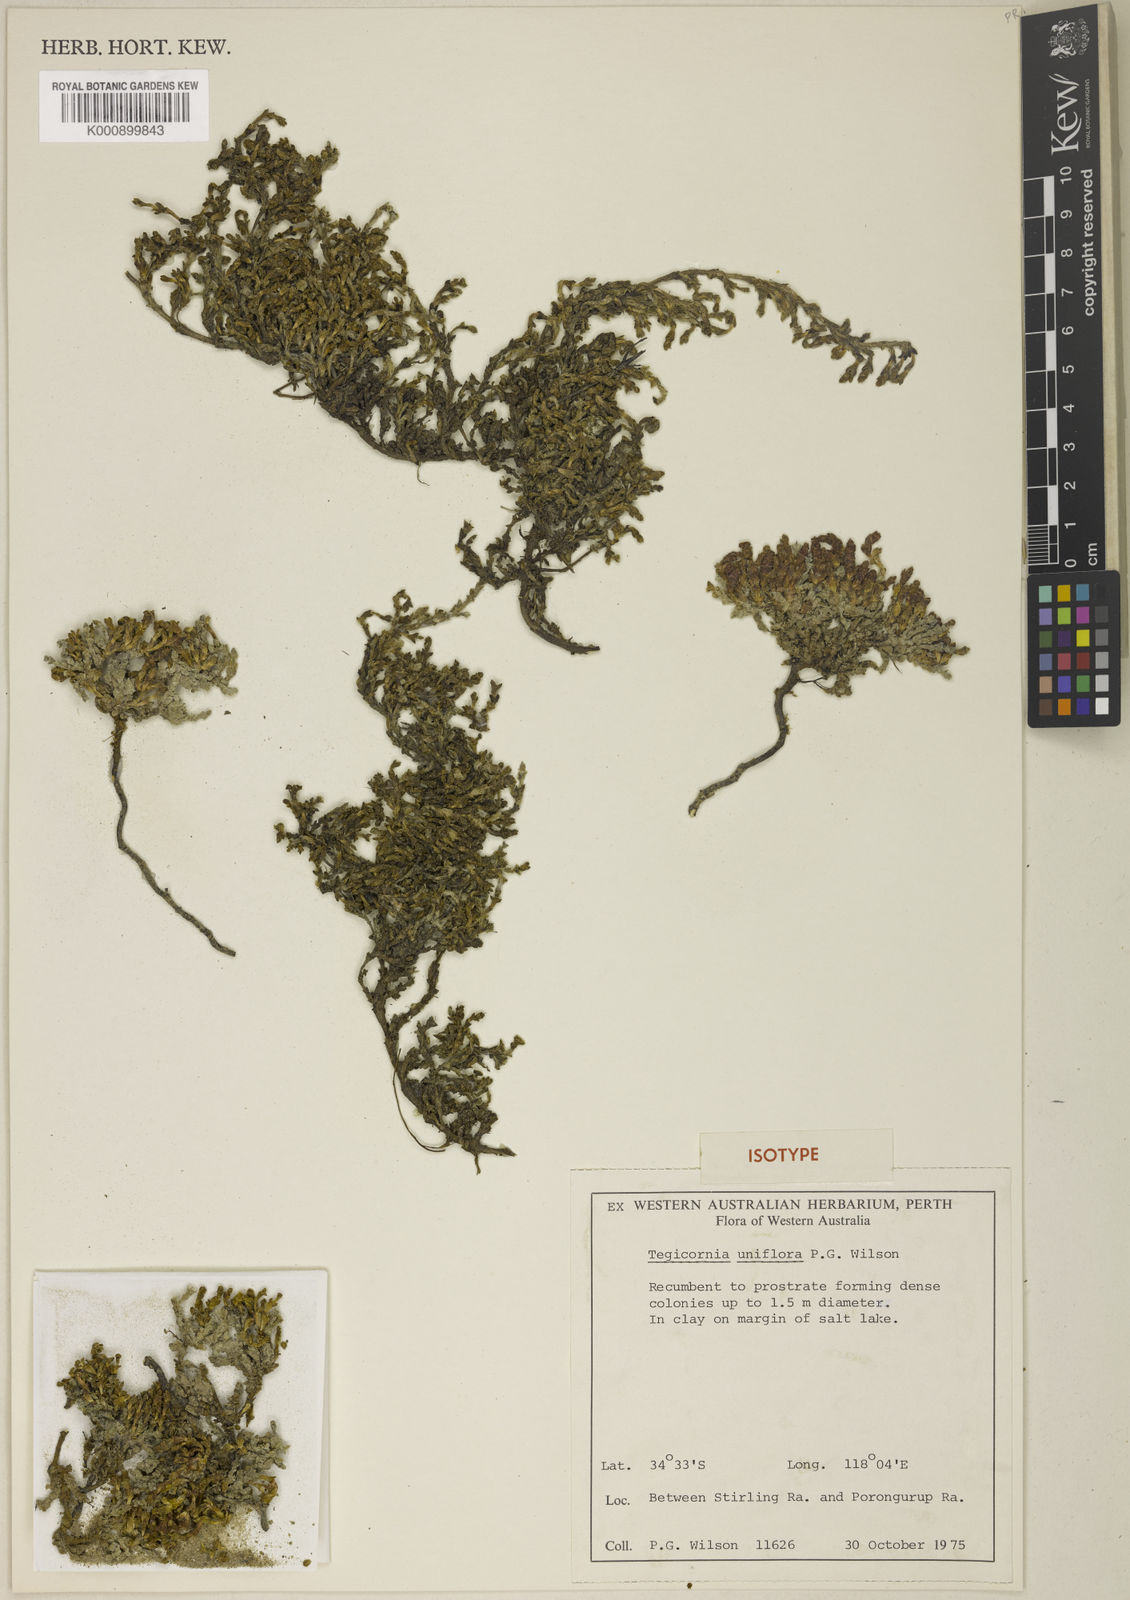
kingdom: Plantae
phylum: Tracheophyta
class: Magnoliopsida
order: Caryophyllales
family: Amaranthaceae
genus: Tecticornia
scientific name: Tecticornia uniflora
